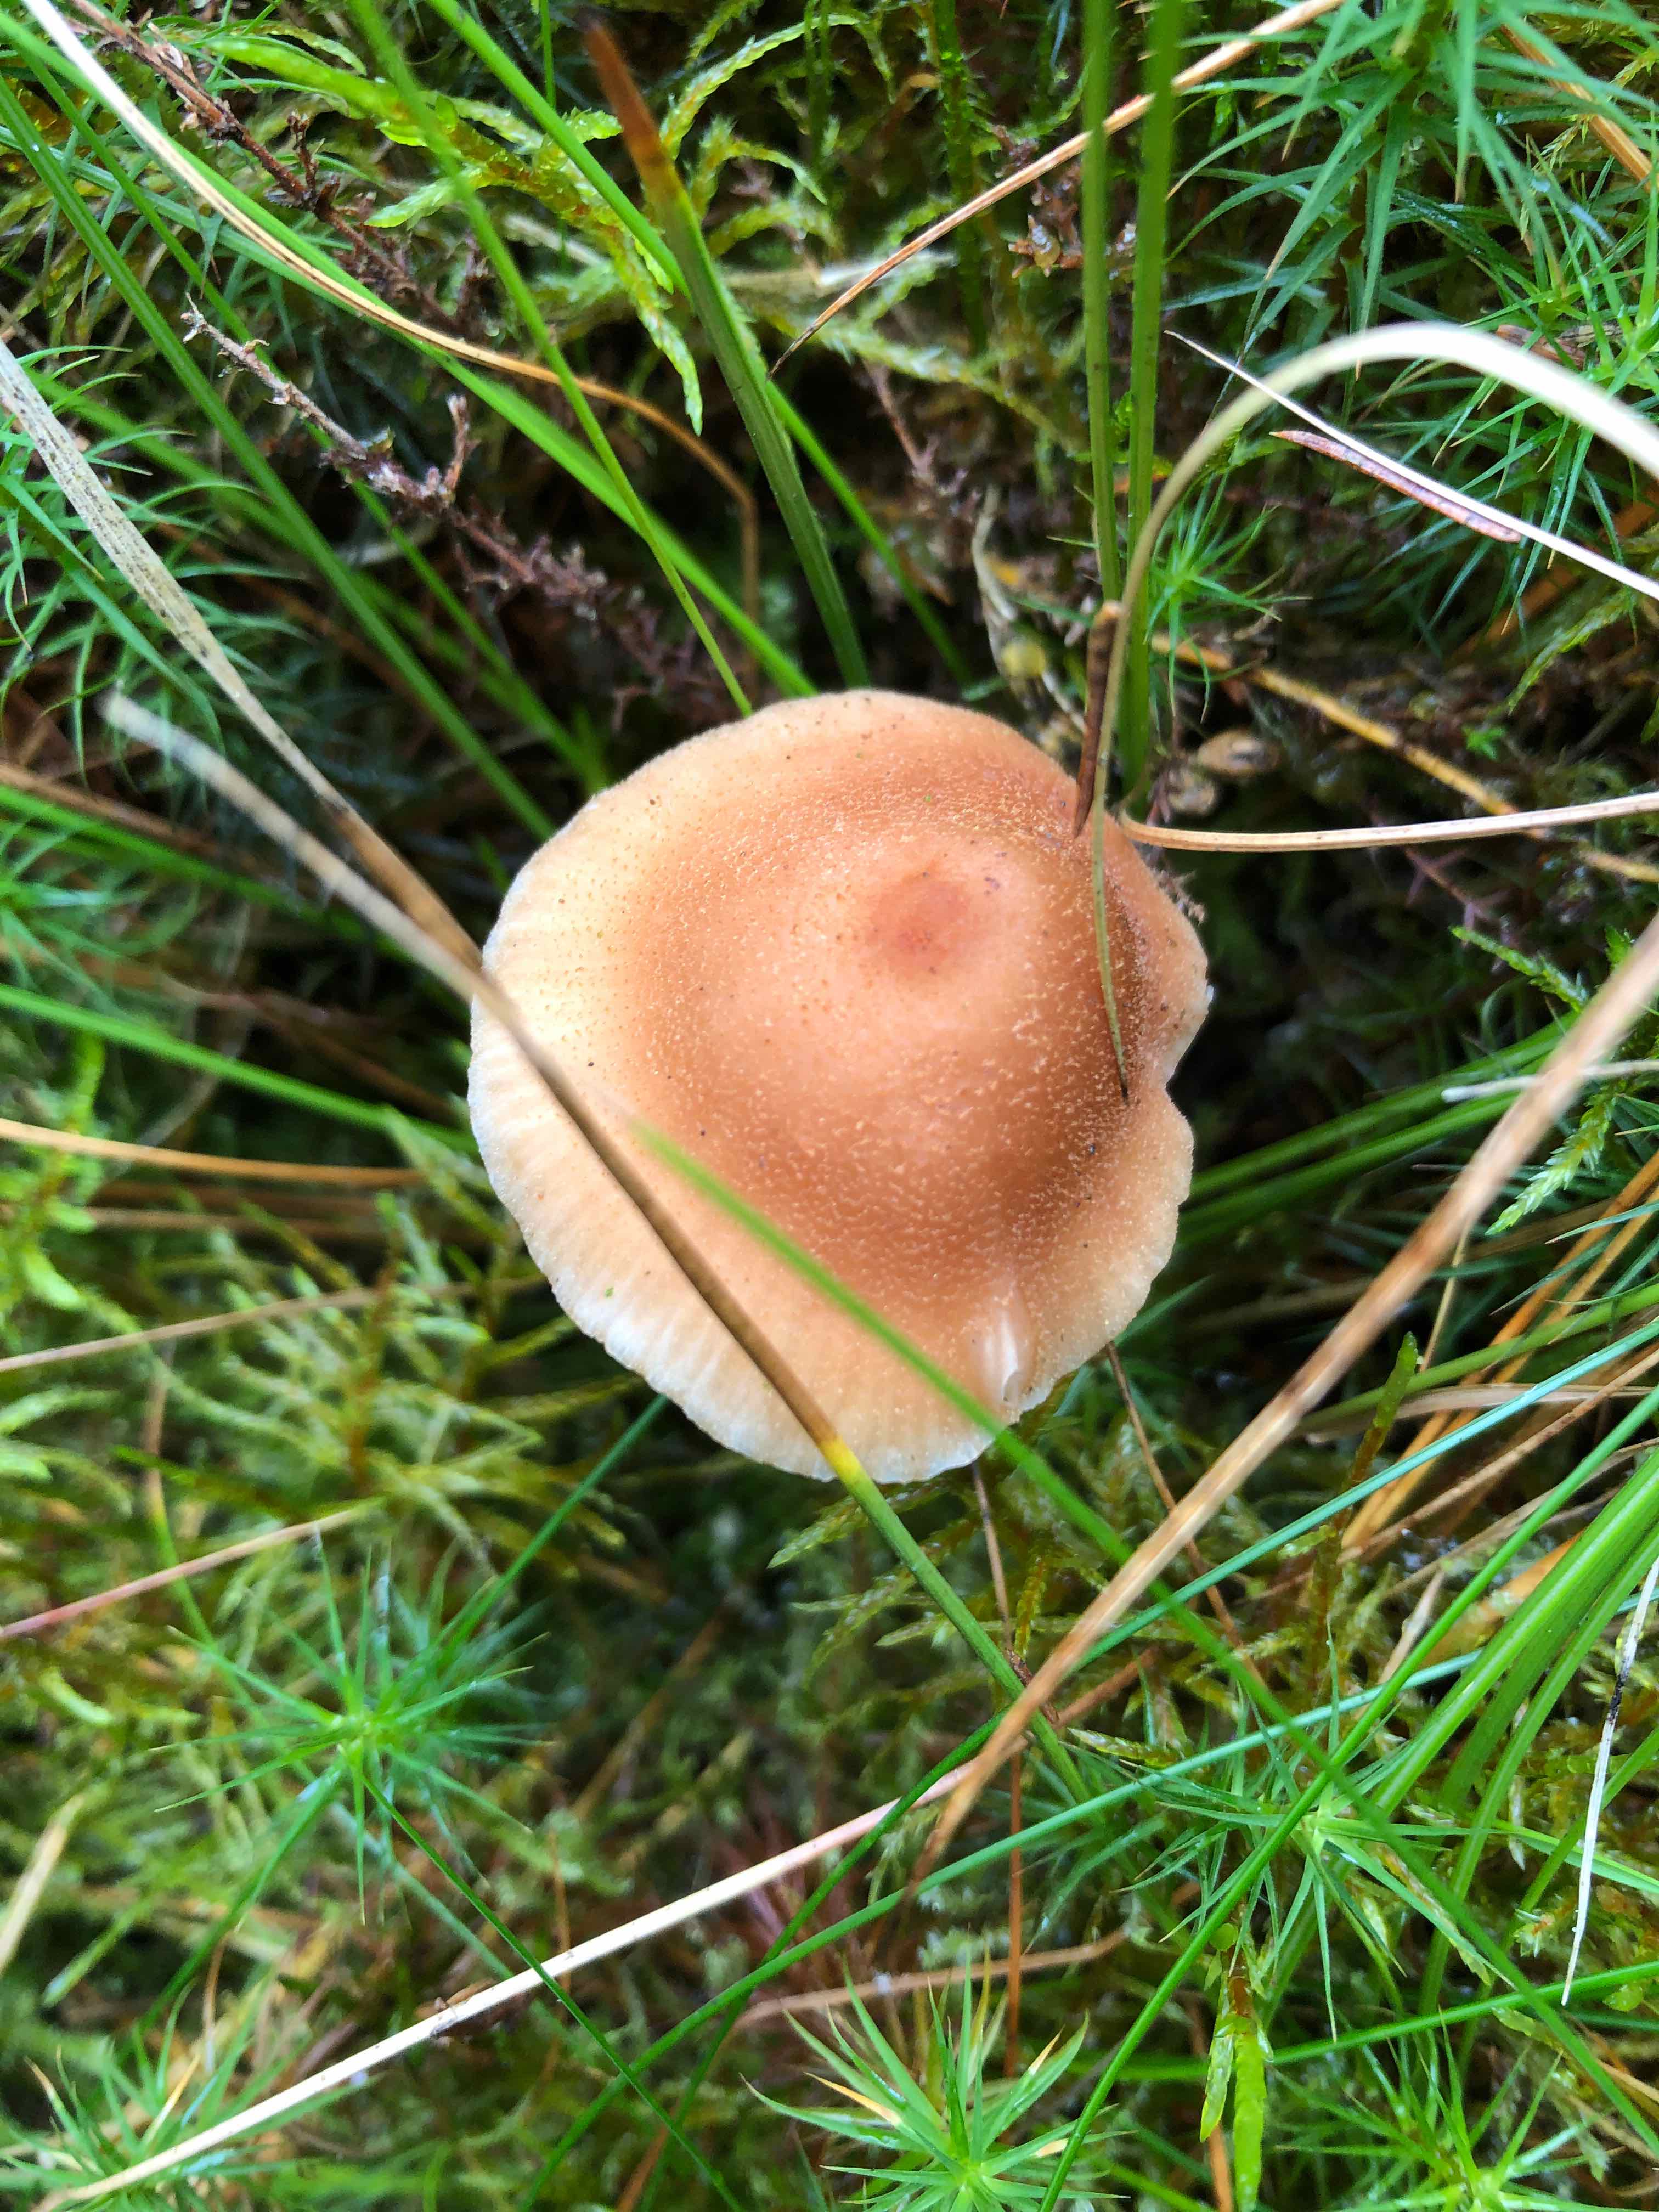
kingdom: Fungi
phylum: Basidiomycota
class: Agaricomycetes
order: Agaricales
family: Hydnangiaceae
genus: Laccaria
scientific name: Laccaria bicolor
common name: tvefarvet ametysthat
